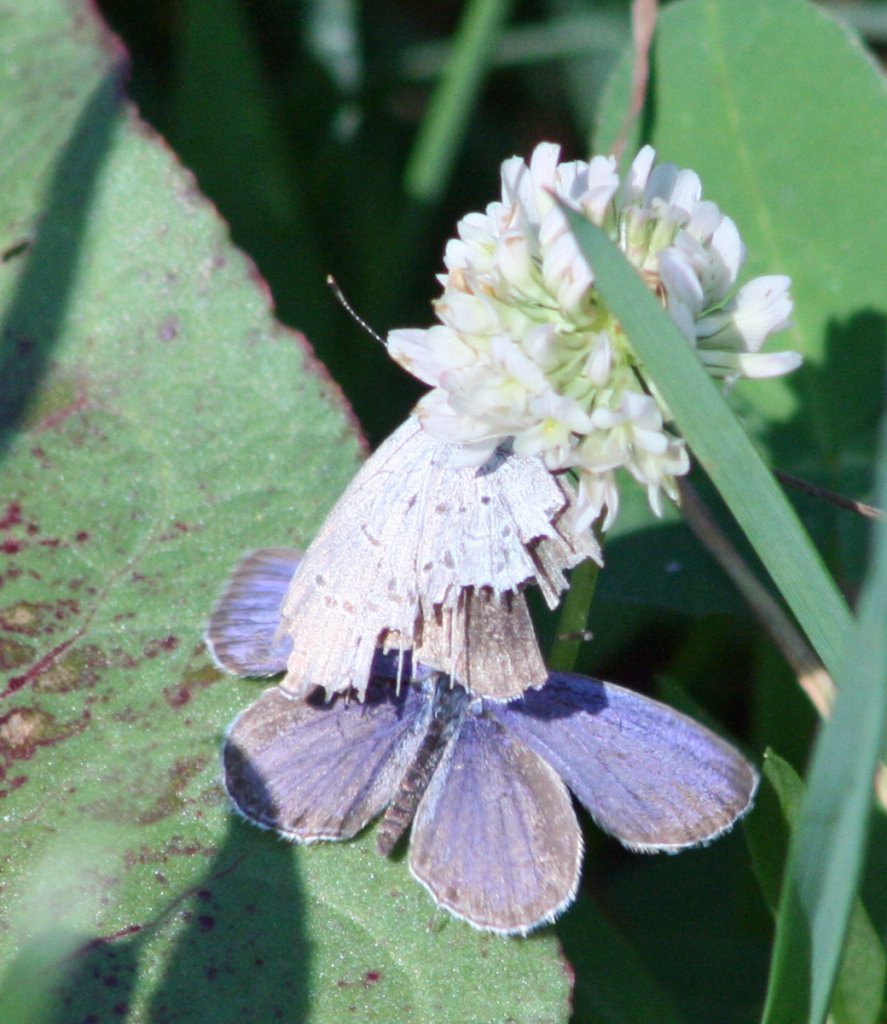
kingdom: Animalia
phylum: Arthropoda
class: Insecta
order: Lepidoptera
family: Lycaenidae
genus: Elkalyce
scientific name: Elkalyce comyntas
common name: Eastern Tailed-Blue
